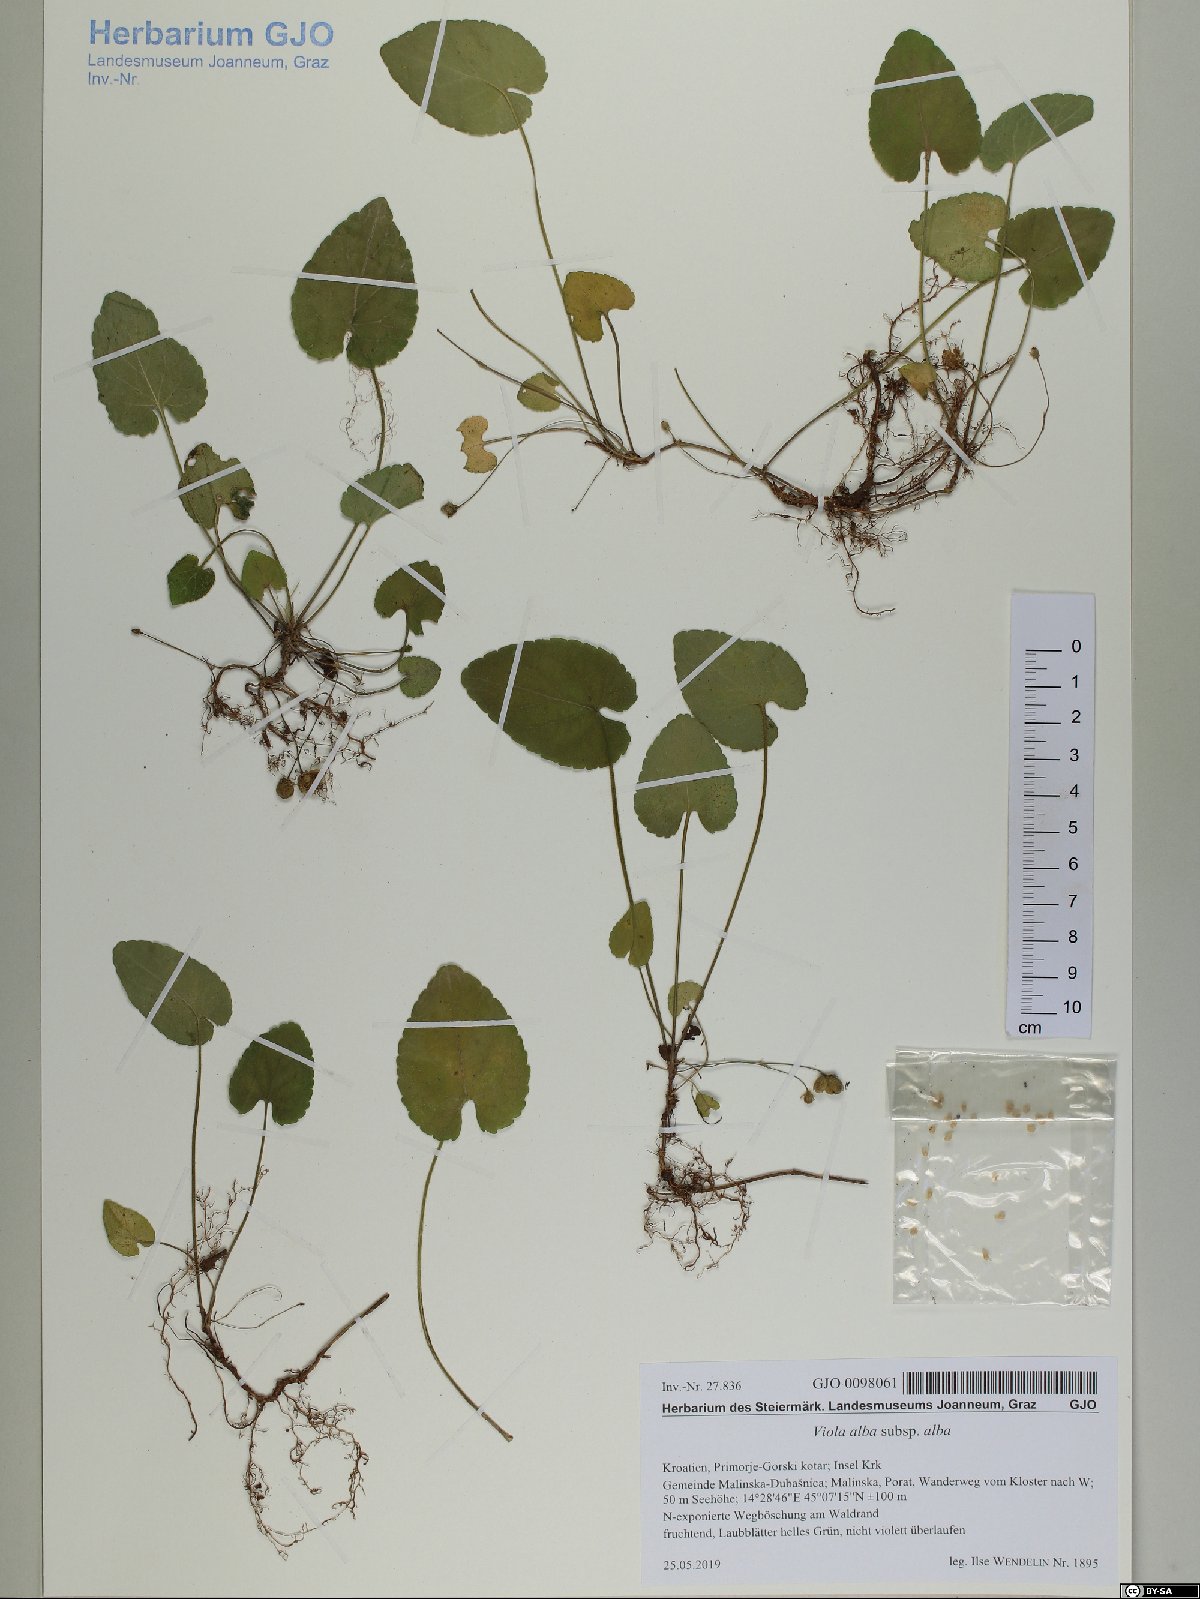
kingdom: Plantae
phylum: Tracheophyta
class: Magnoliopsida
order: Malpighiales
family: Violaceae
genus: Viola
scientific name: Viola alba
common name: White violet
